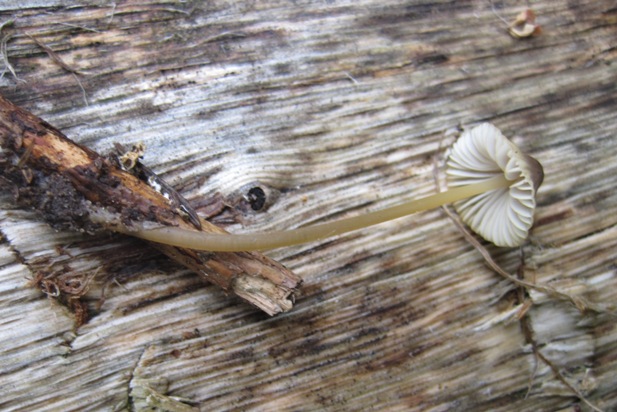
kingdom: Fungi
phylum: Basidiomycota
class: Agaricomycetes
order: Agaricales
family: Mycenaceae
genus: Mycena
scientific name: Mycena olivaceomarginata
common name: brunægget huesvamp
